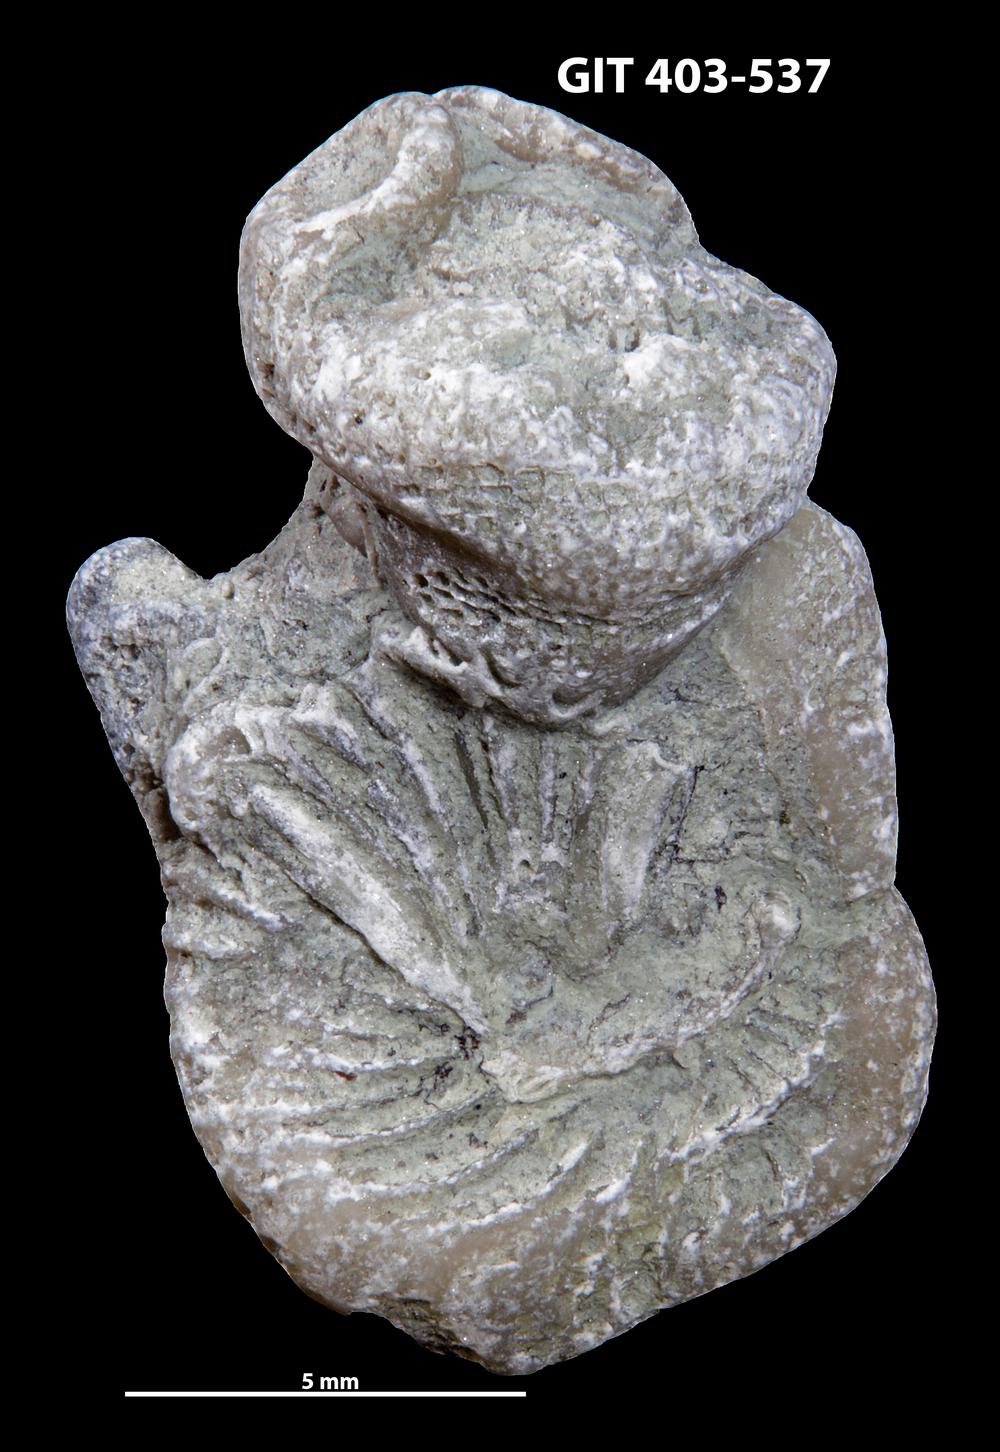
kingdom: Animalia
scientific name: Animalia
